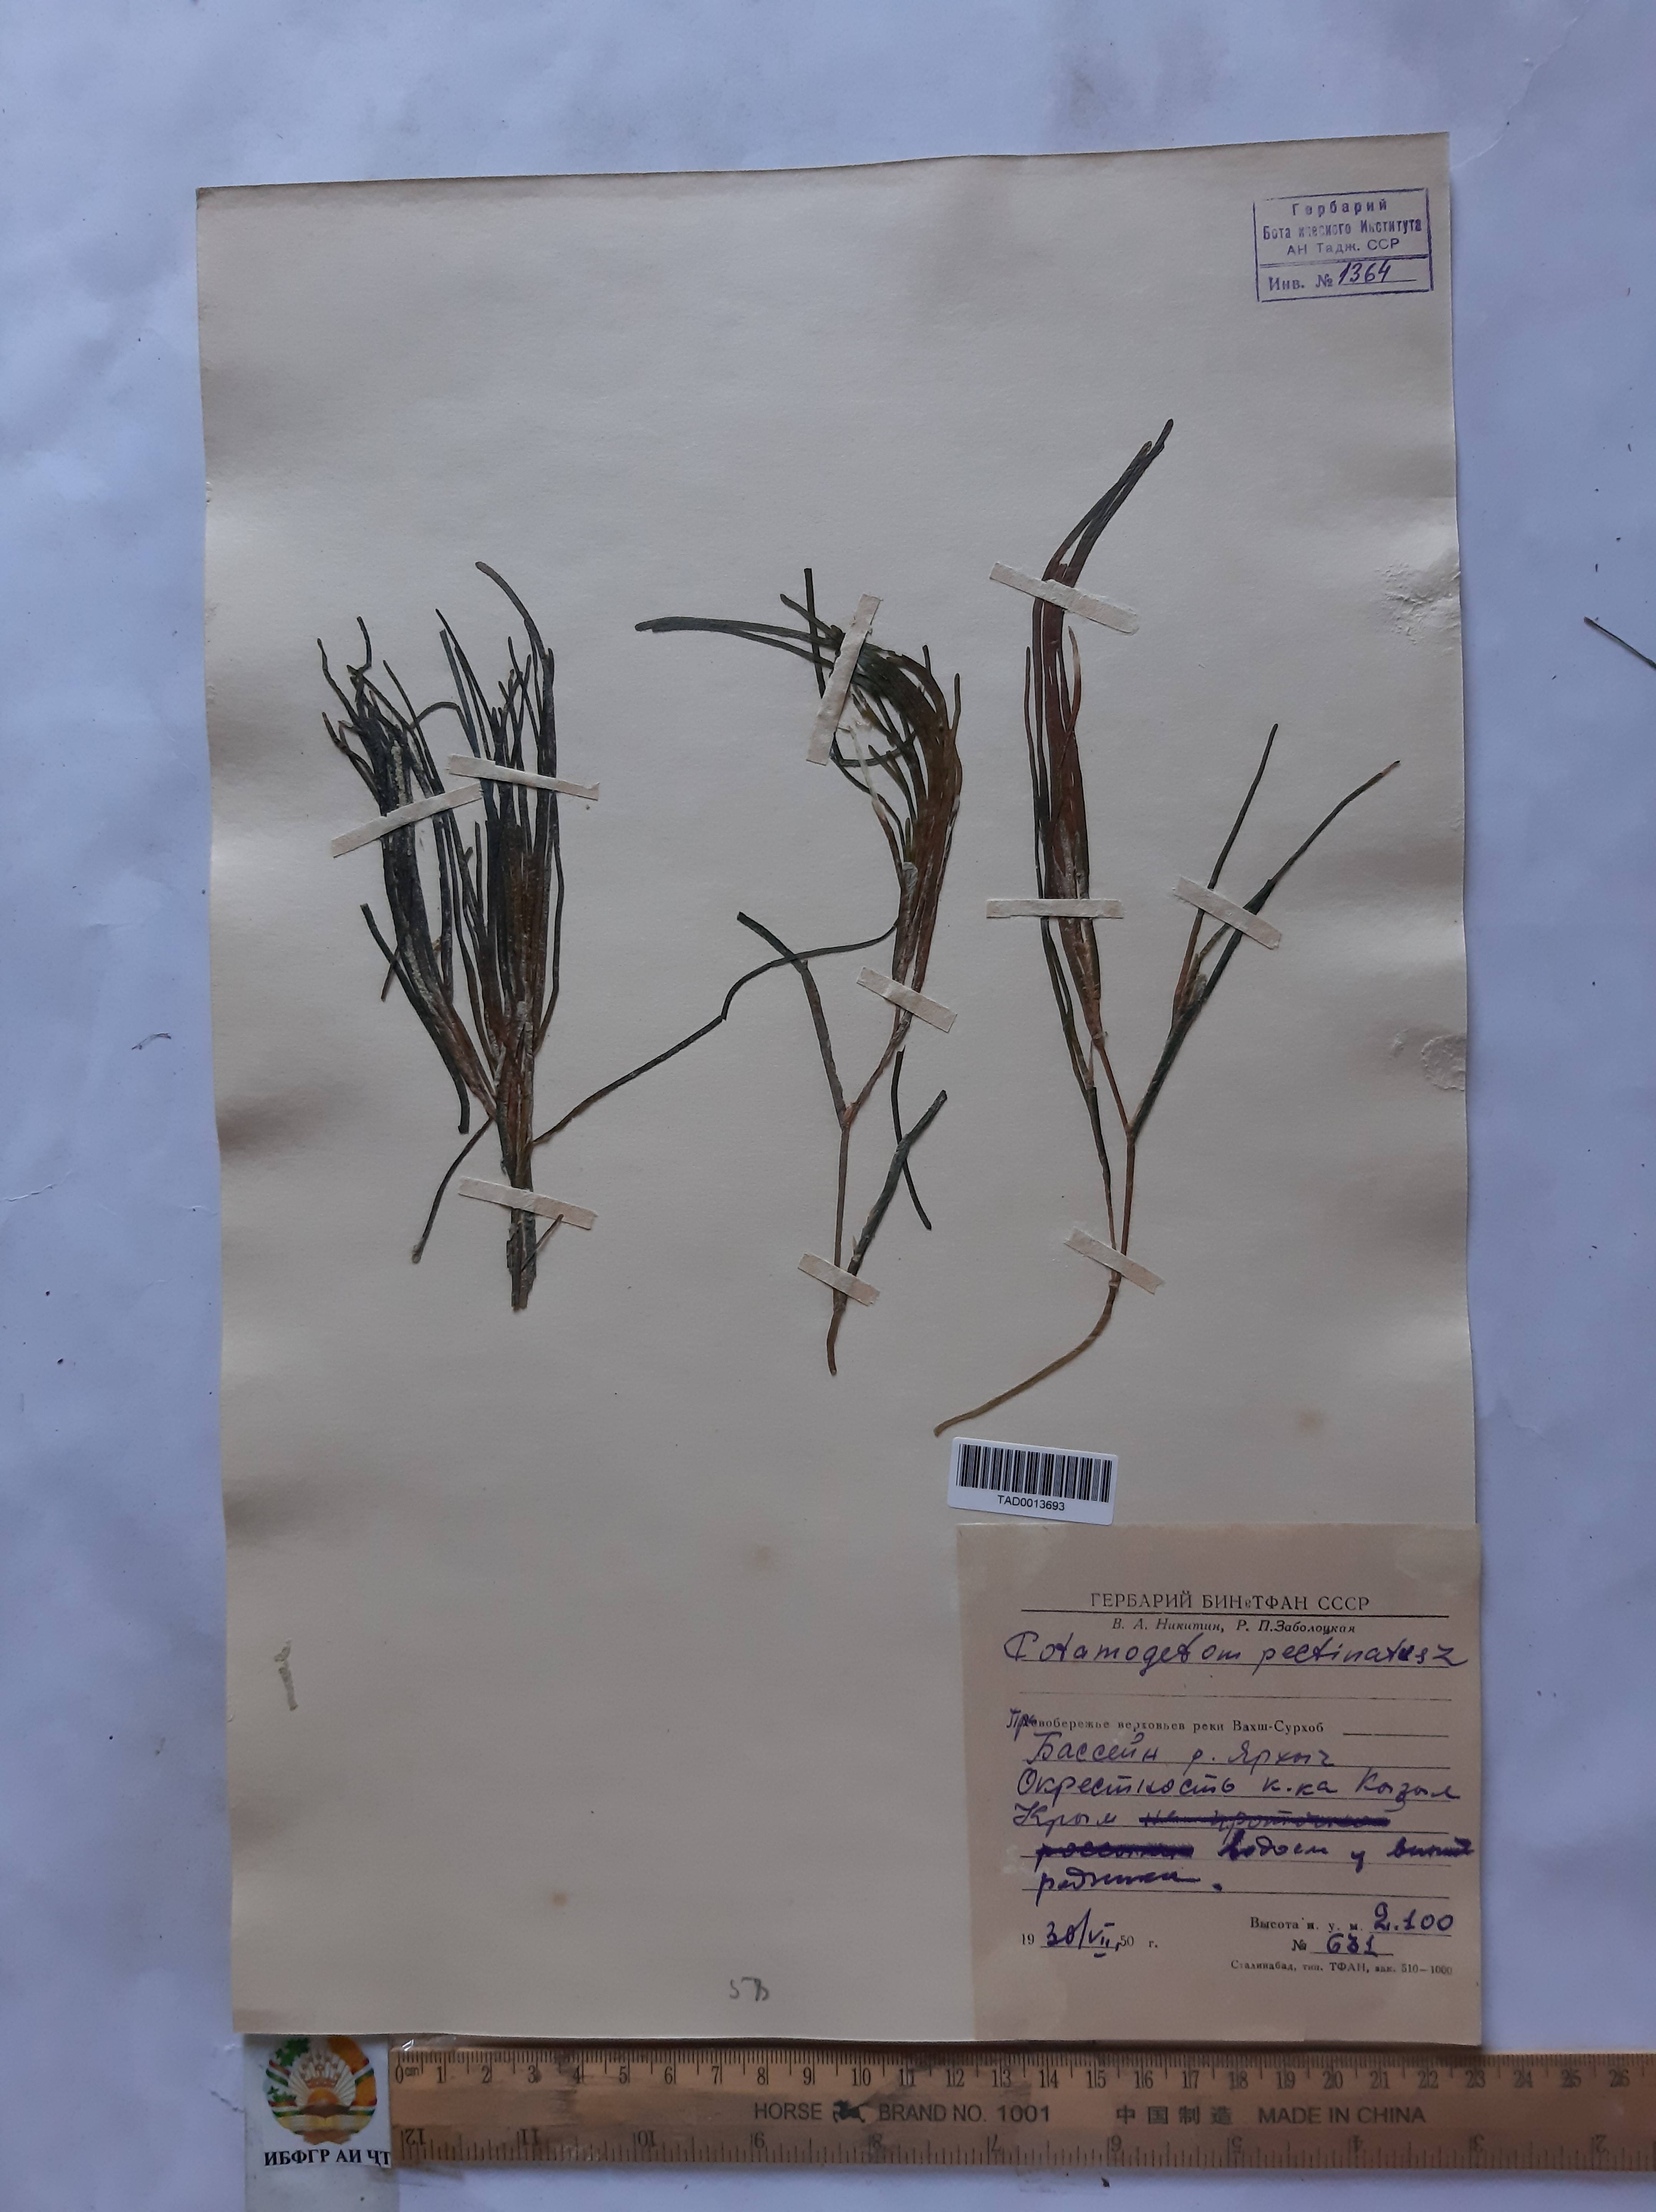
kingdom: Plantae
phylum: Tracheophyta
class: Liliopsida
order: Alismatales
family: Potamogetonaceae
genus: Potamogeton
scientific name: Potamogeton pusillus
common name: Lesser pondweed
